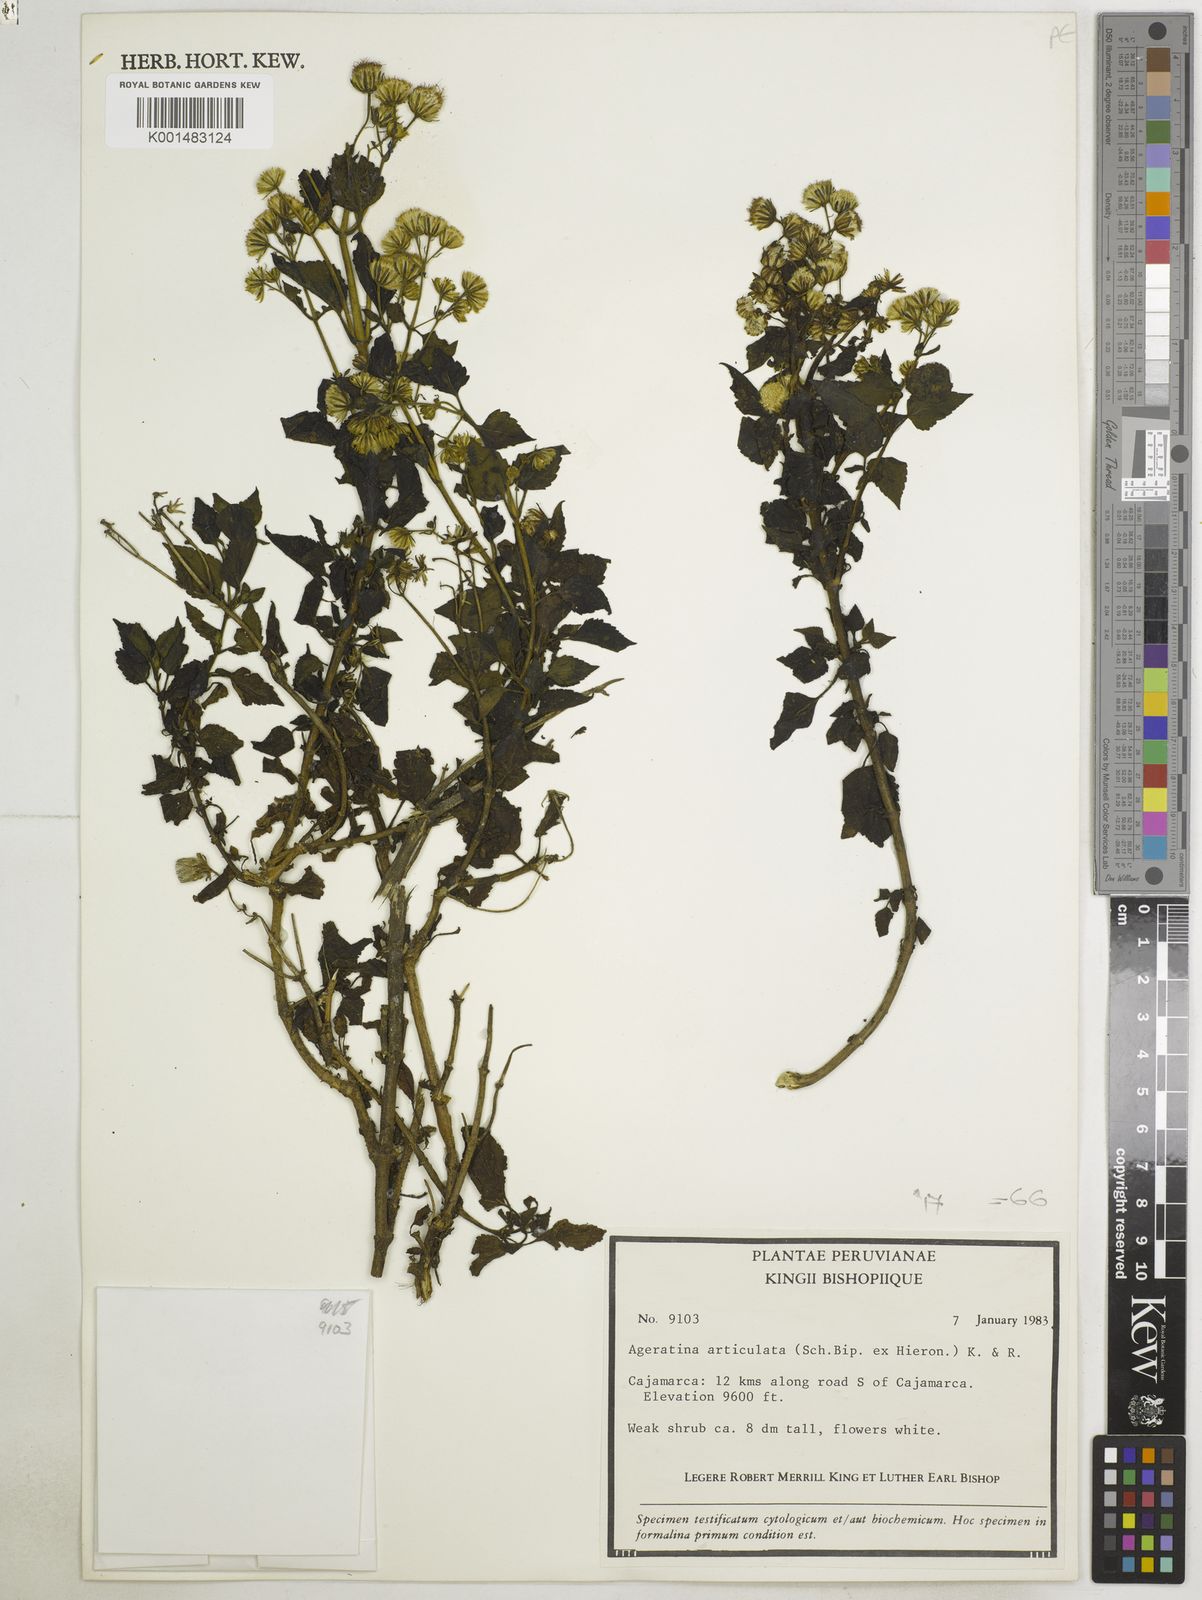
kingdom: Plantae
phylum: Tracheophyta
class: Magnoliopsida
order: Asterales
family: Asteraceae
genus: Ageratina
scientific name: Ageratina pichinchensis
